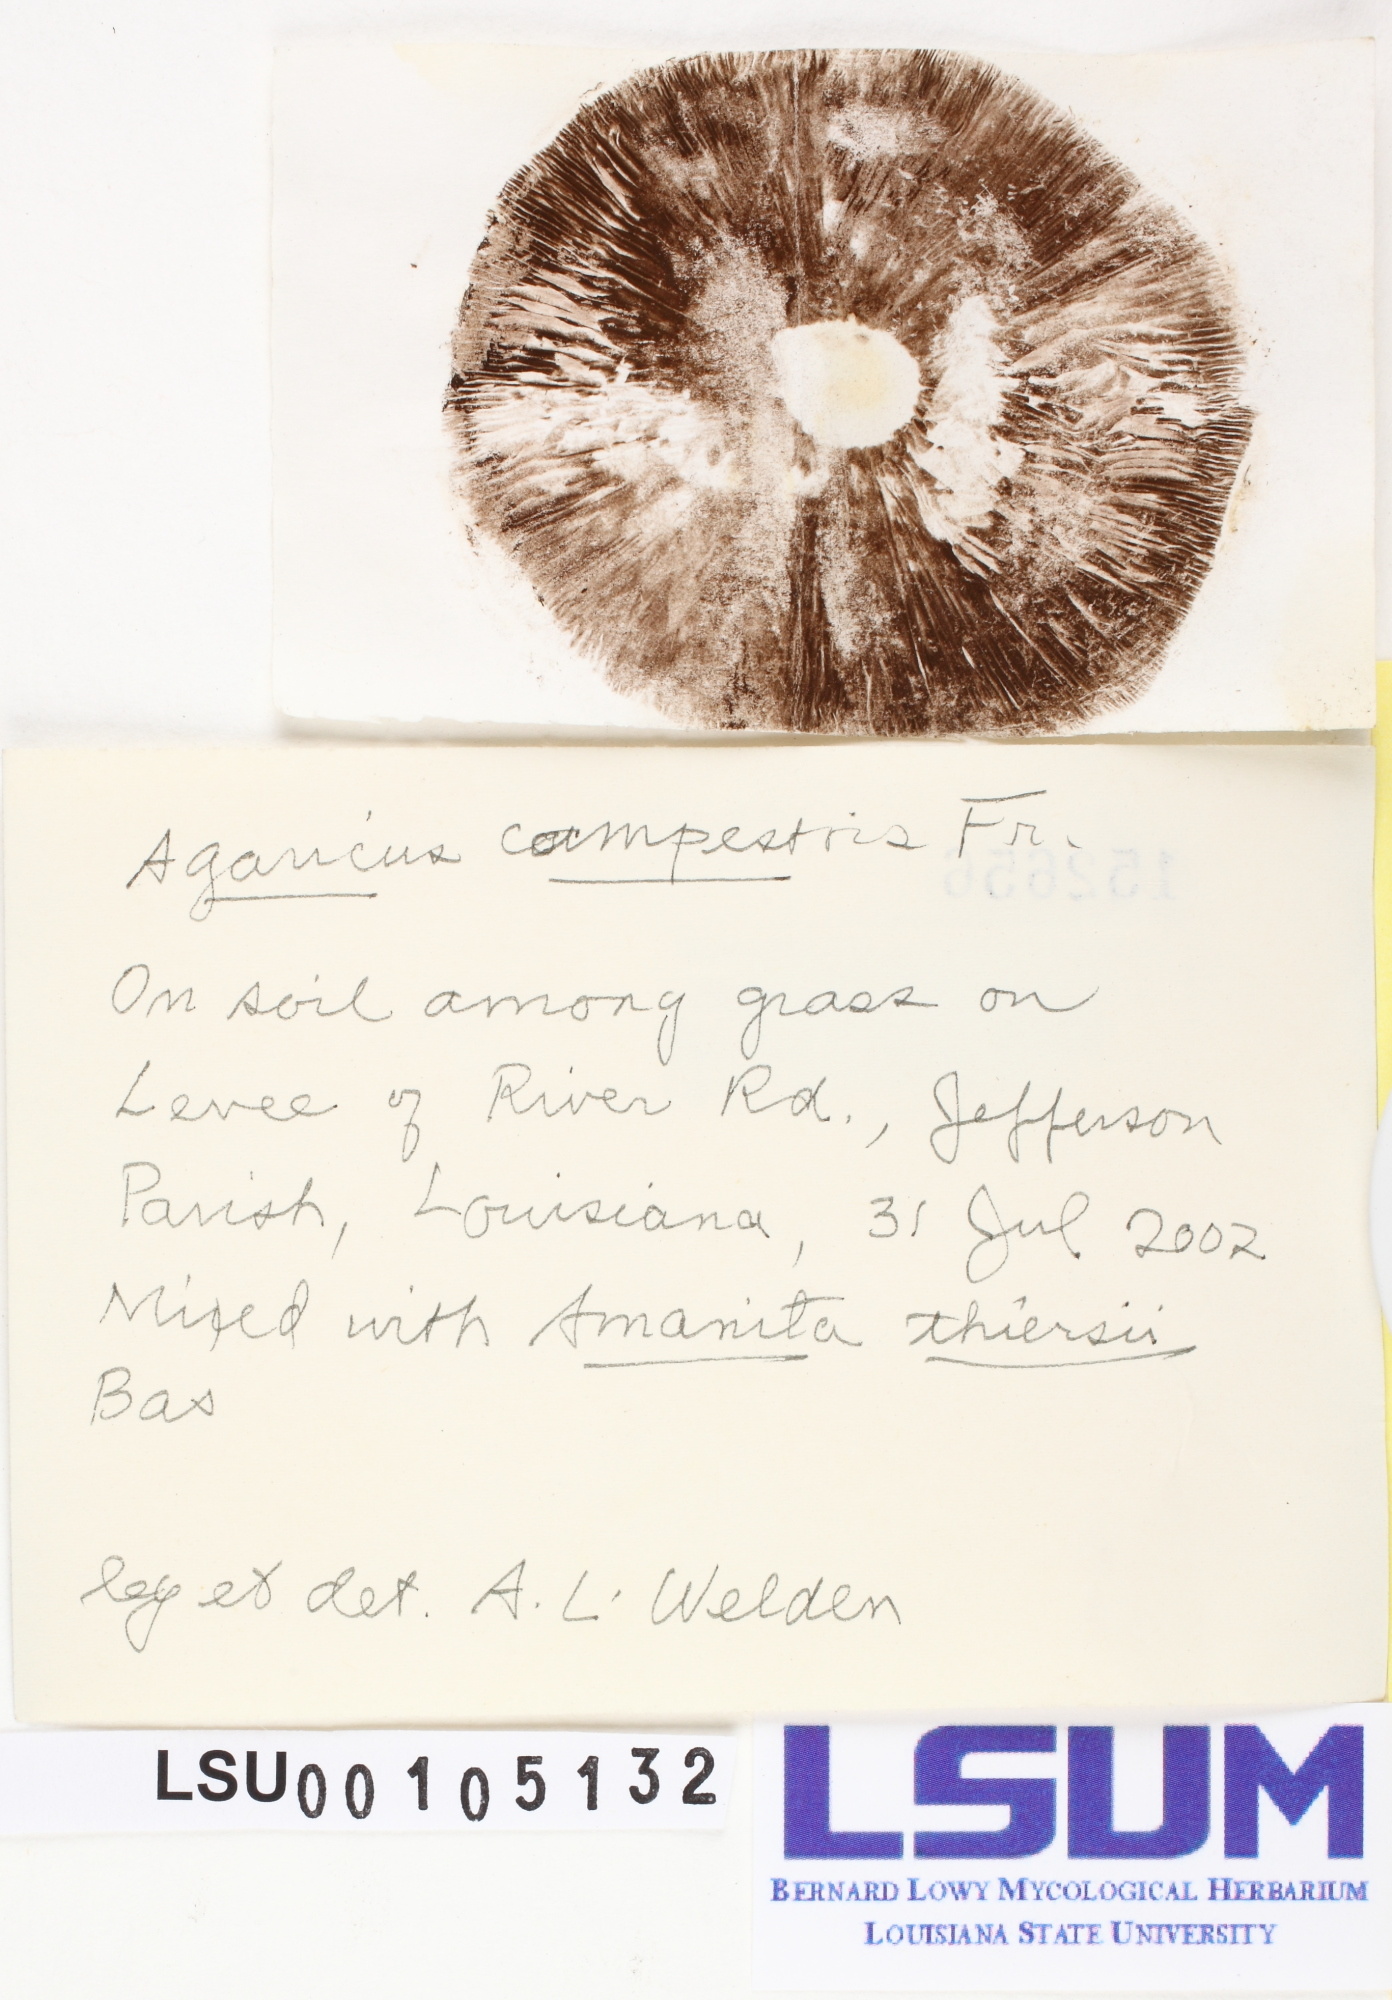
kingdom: Fungi
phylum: Basidiomycota
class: Agaricomycetes
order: Agaricales
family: Agaricaceae
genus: Agaricus
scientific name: Agaricus campestris
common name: Field mushroom
